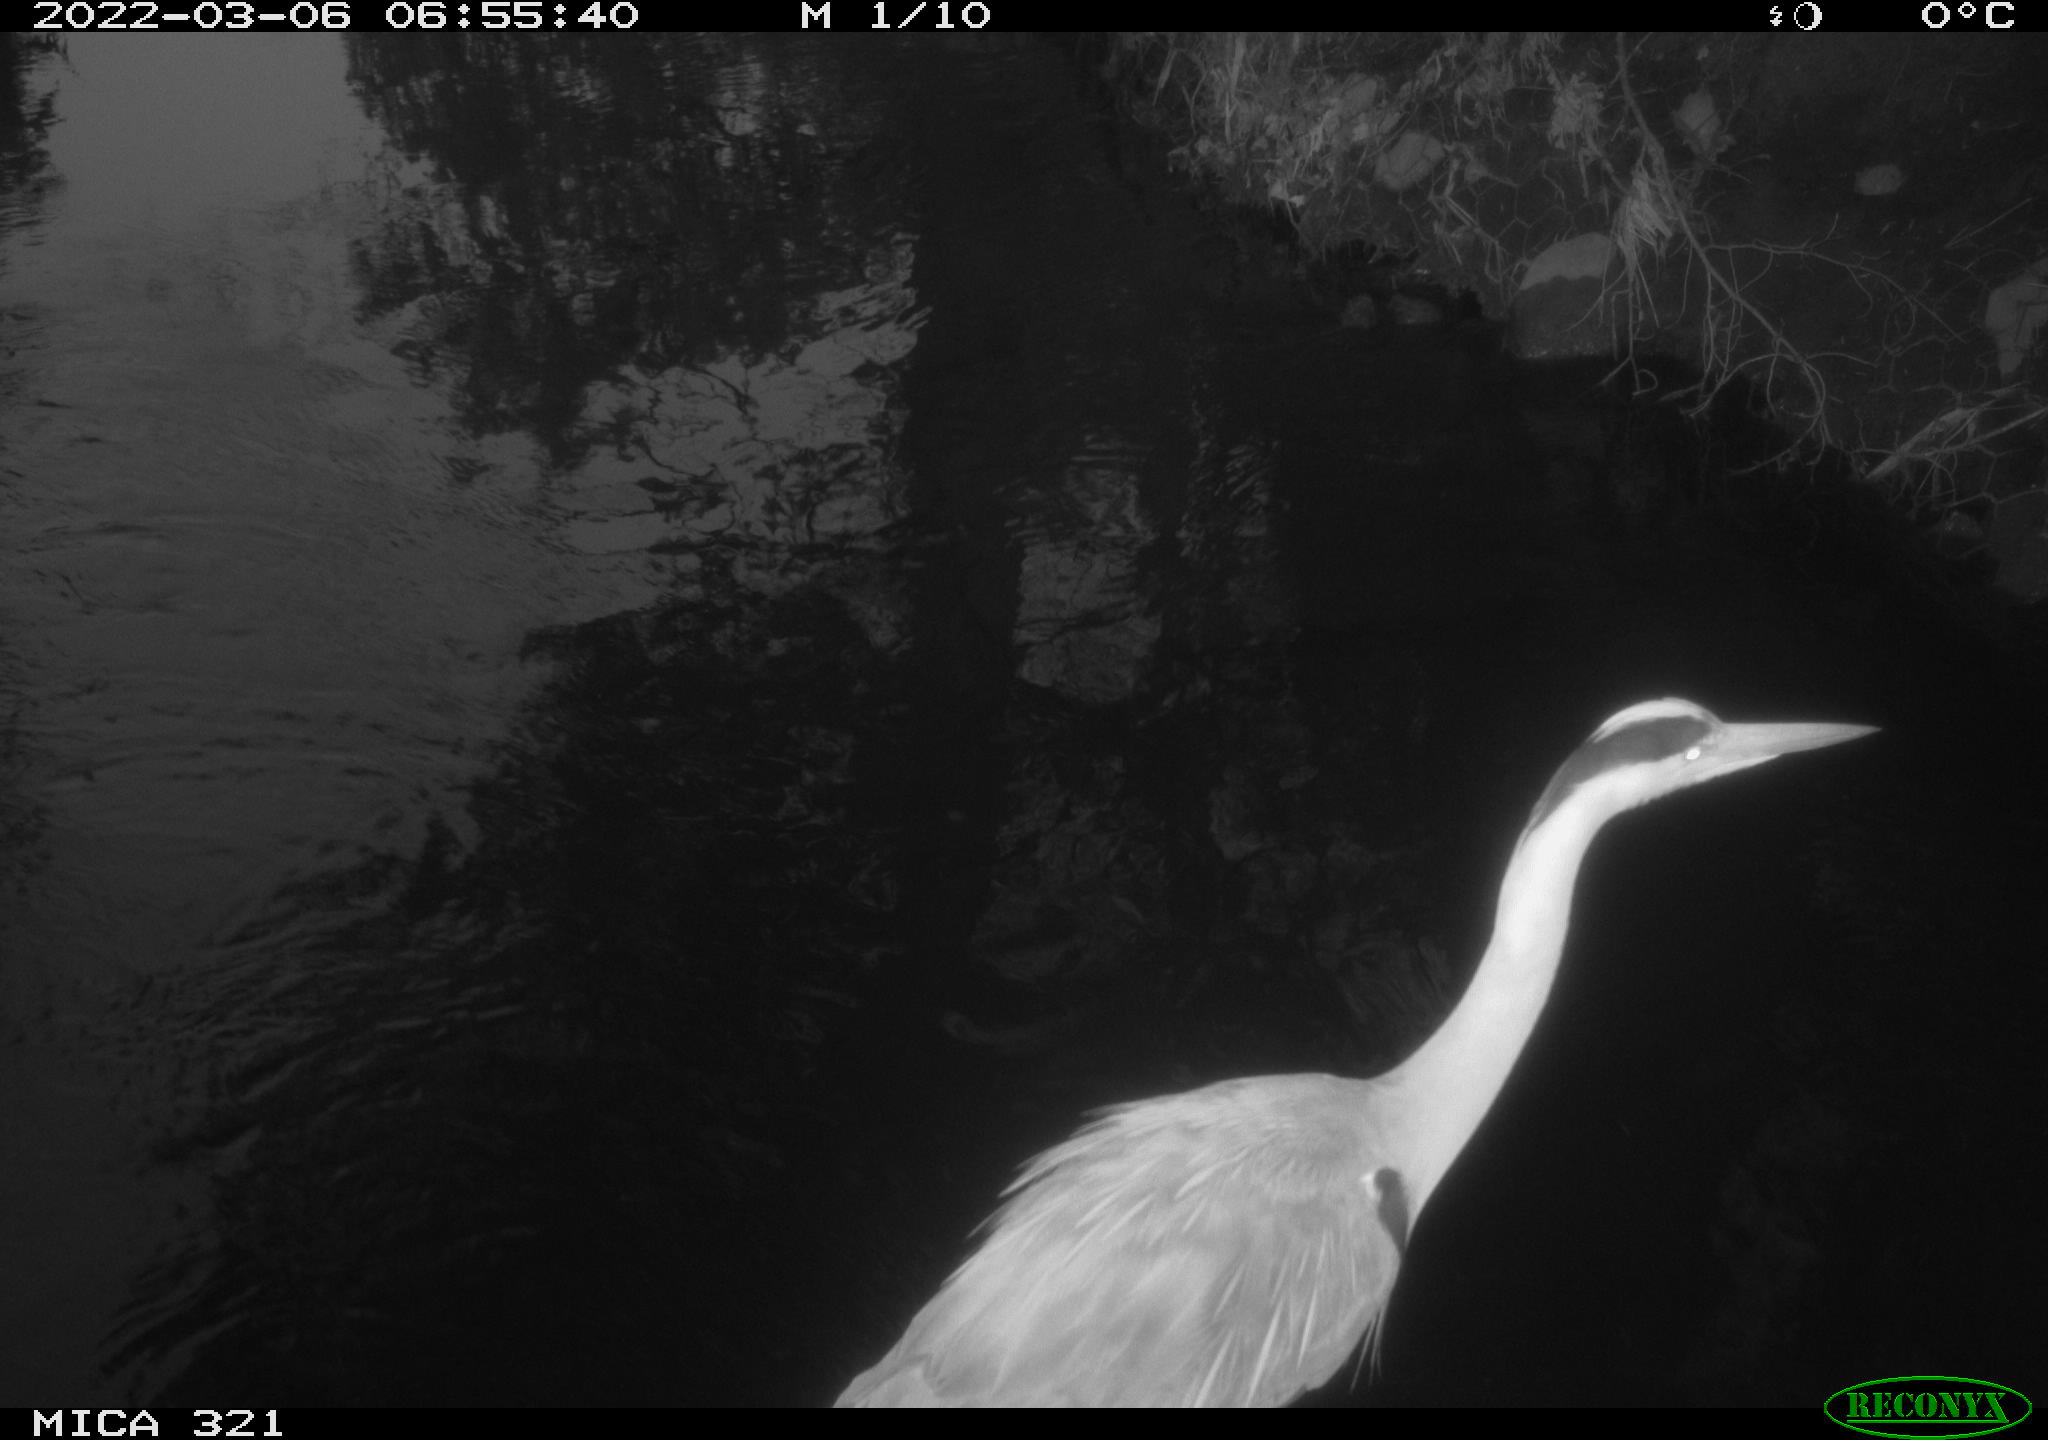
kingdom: Animalia
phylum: Chordata
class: Aves
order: Pelecaniformes
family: Ardeidae
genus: Ardea
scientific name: Ardea
